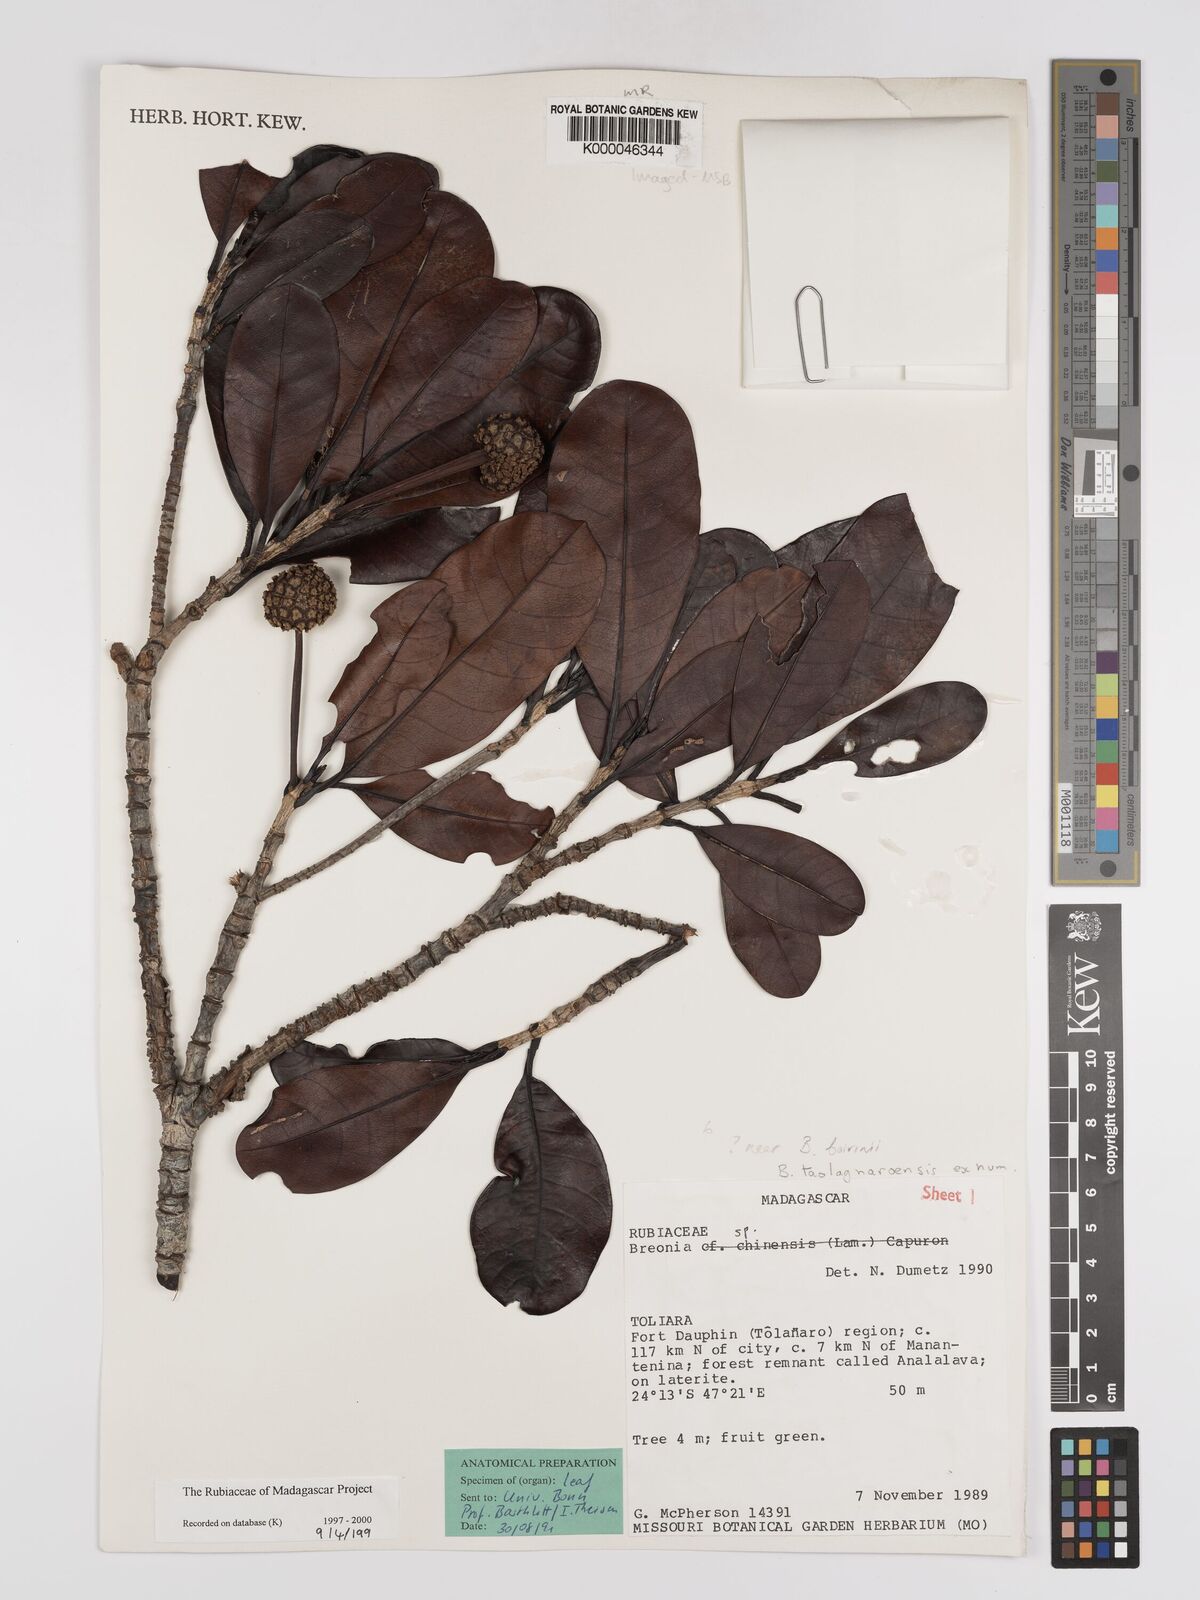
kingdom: Plantae
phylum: Tracheophyta
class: Magnoliopsida
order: Gentianales
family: Rubiaceae
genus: Breonia
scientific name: Breonia taolagnaroensis
